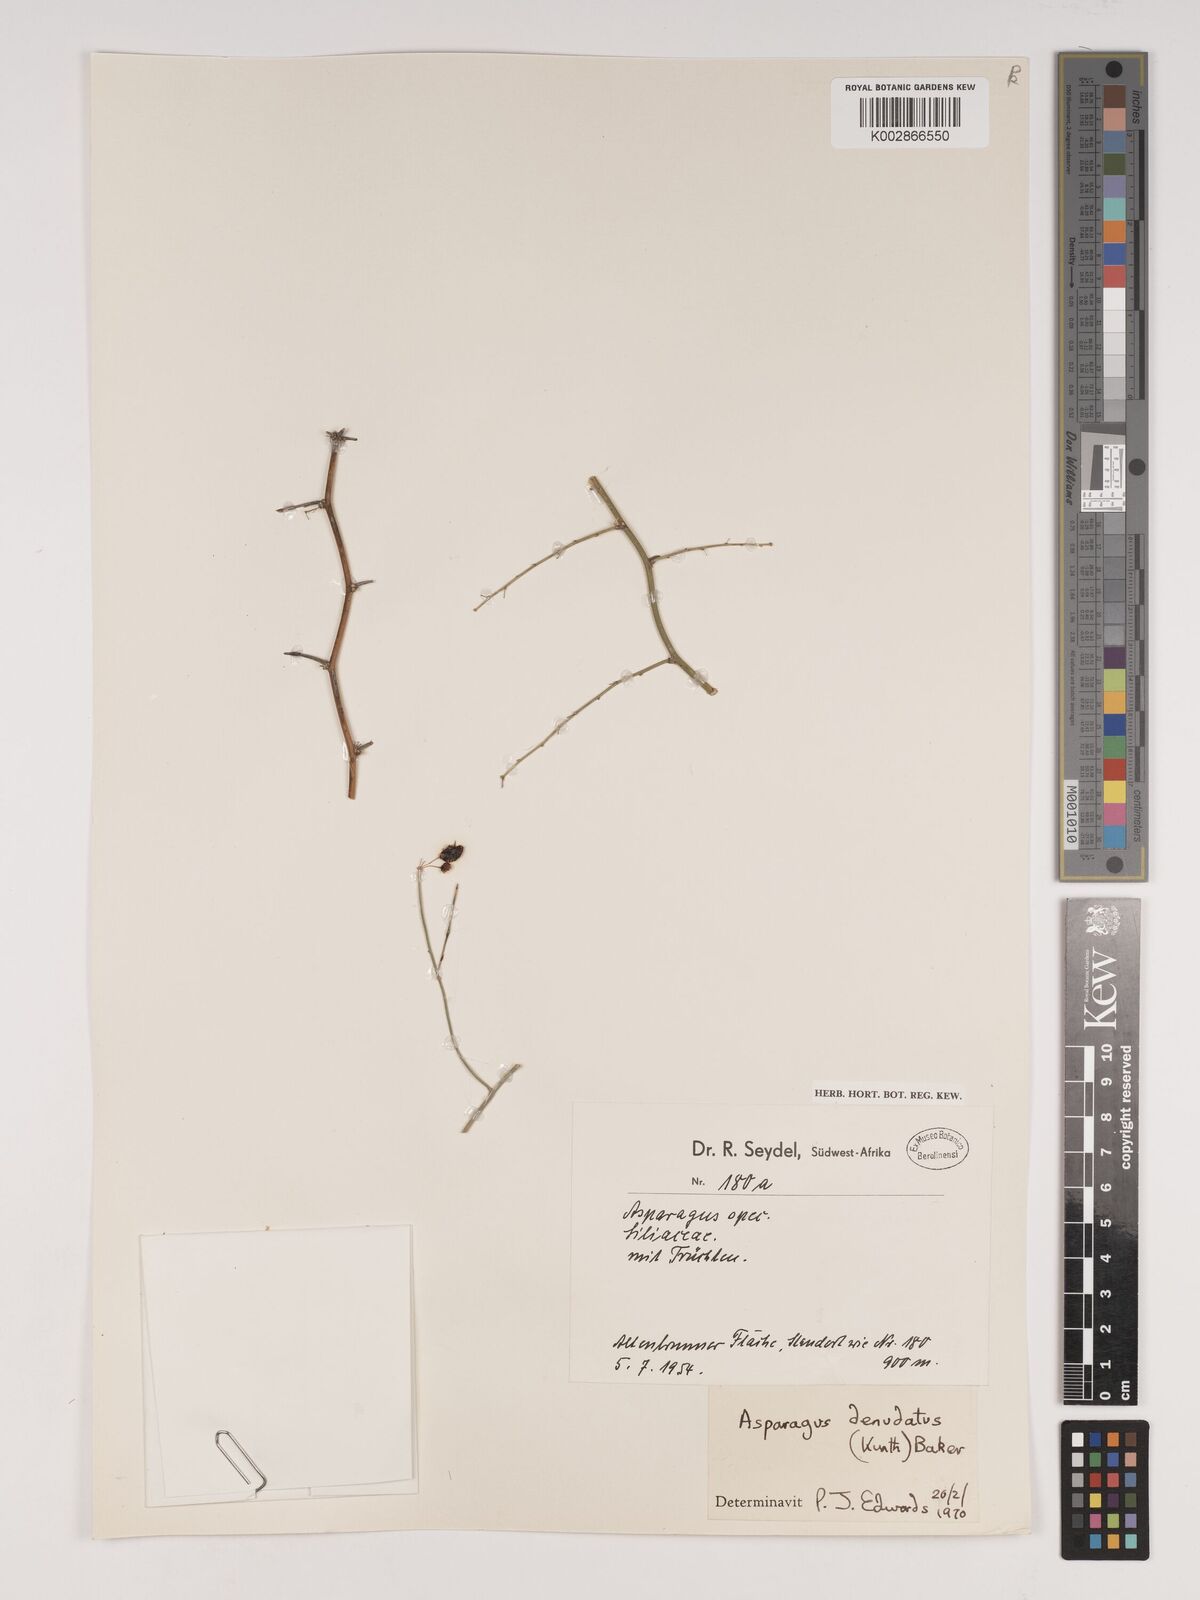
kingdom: Plantae
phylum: Tracheophyta
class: Liliopsida
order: Asparagales
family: Asparagaceae
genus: Asparagus
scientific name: Asparagus denudatus
